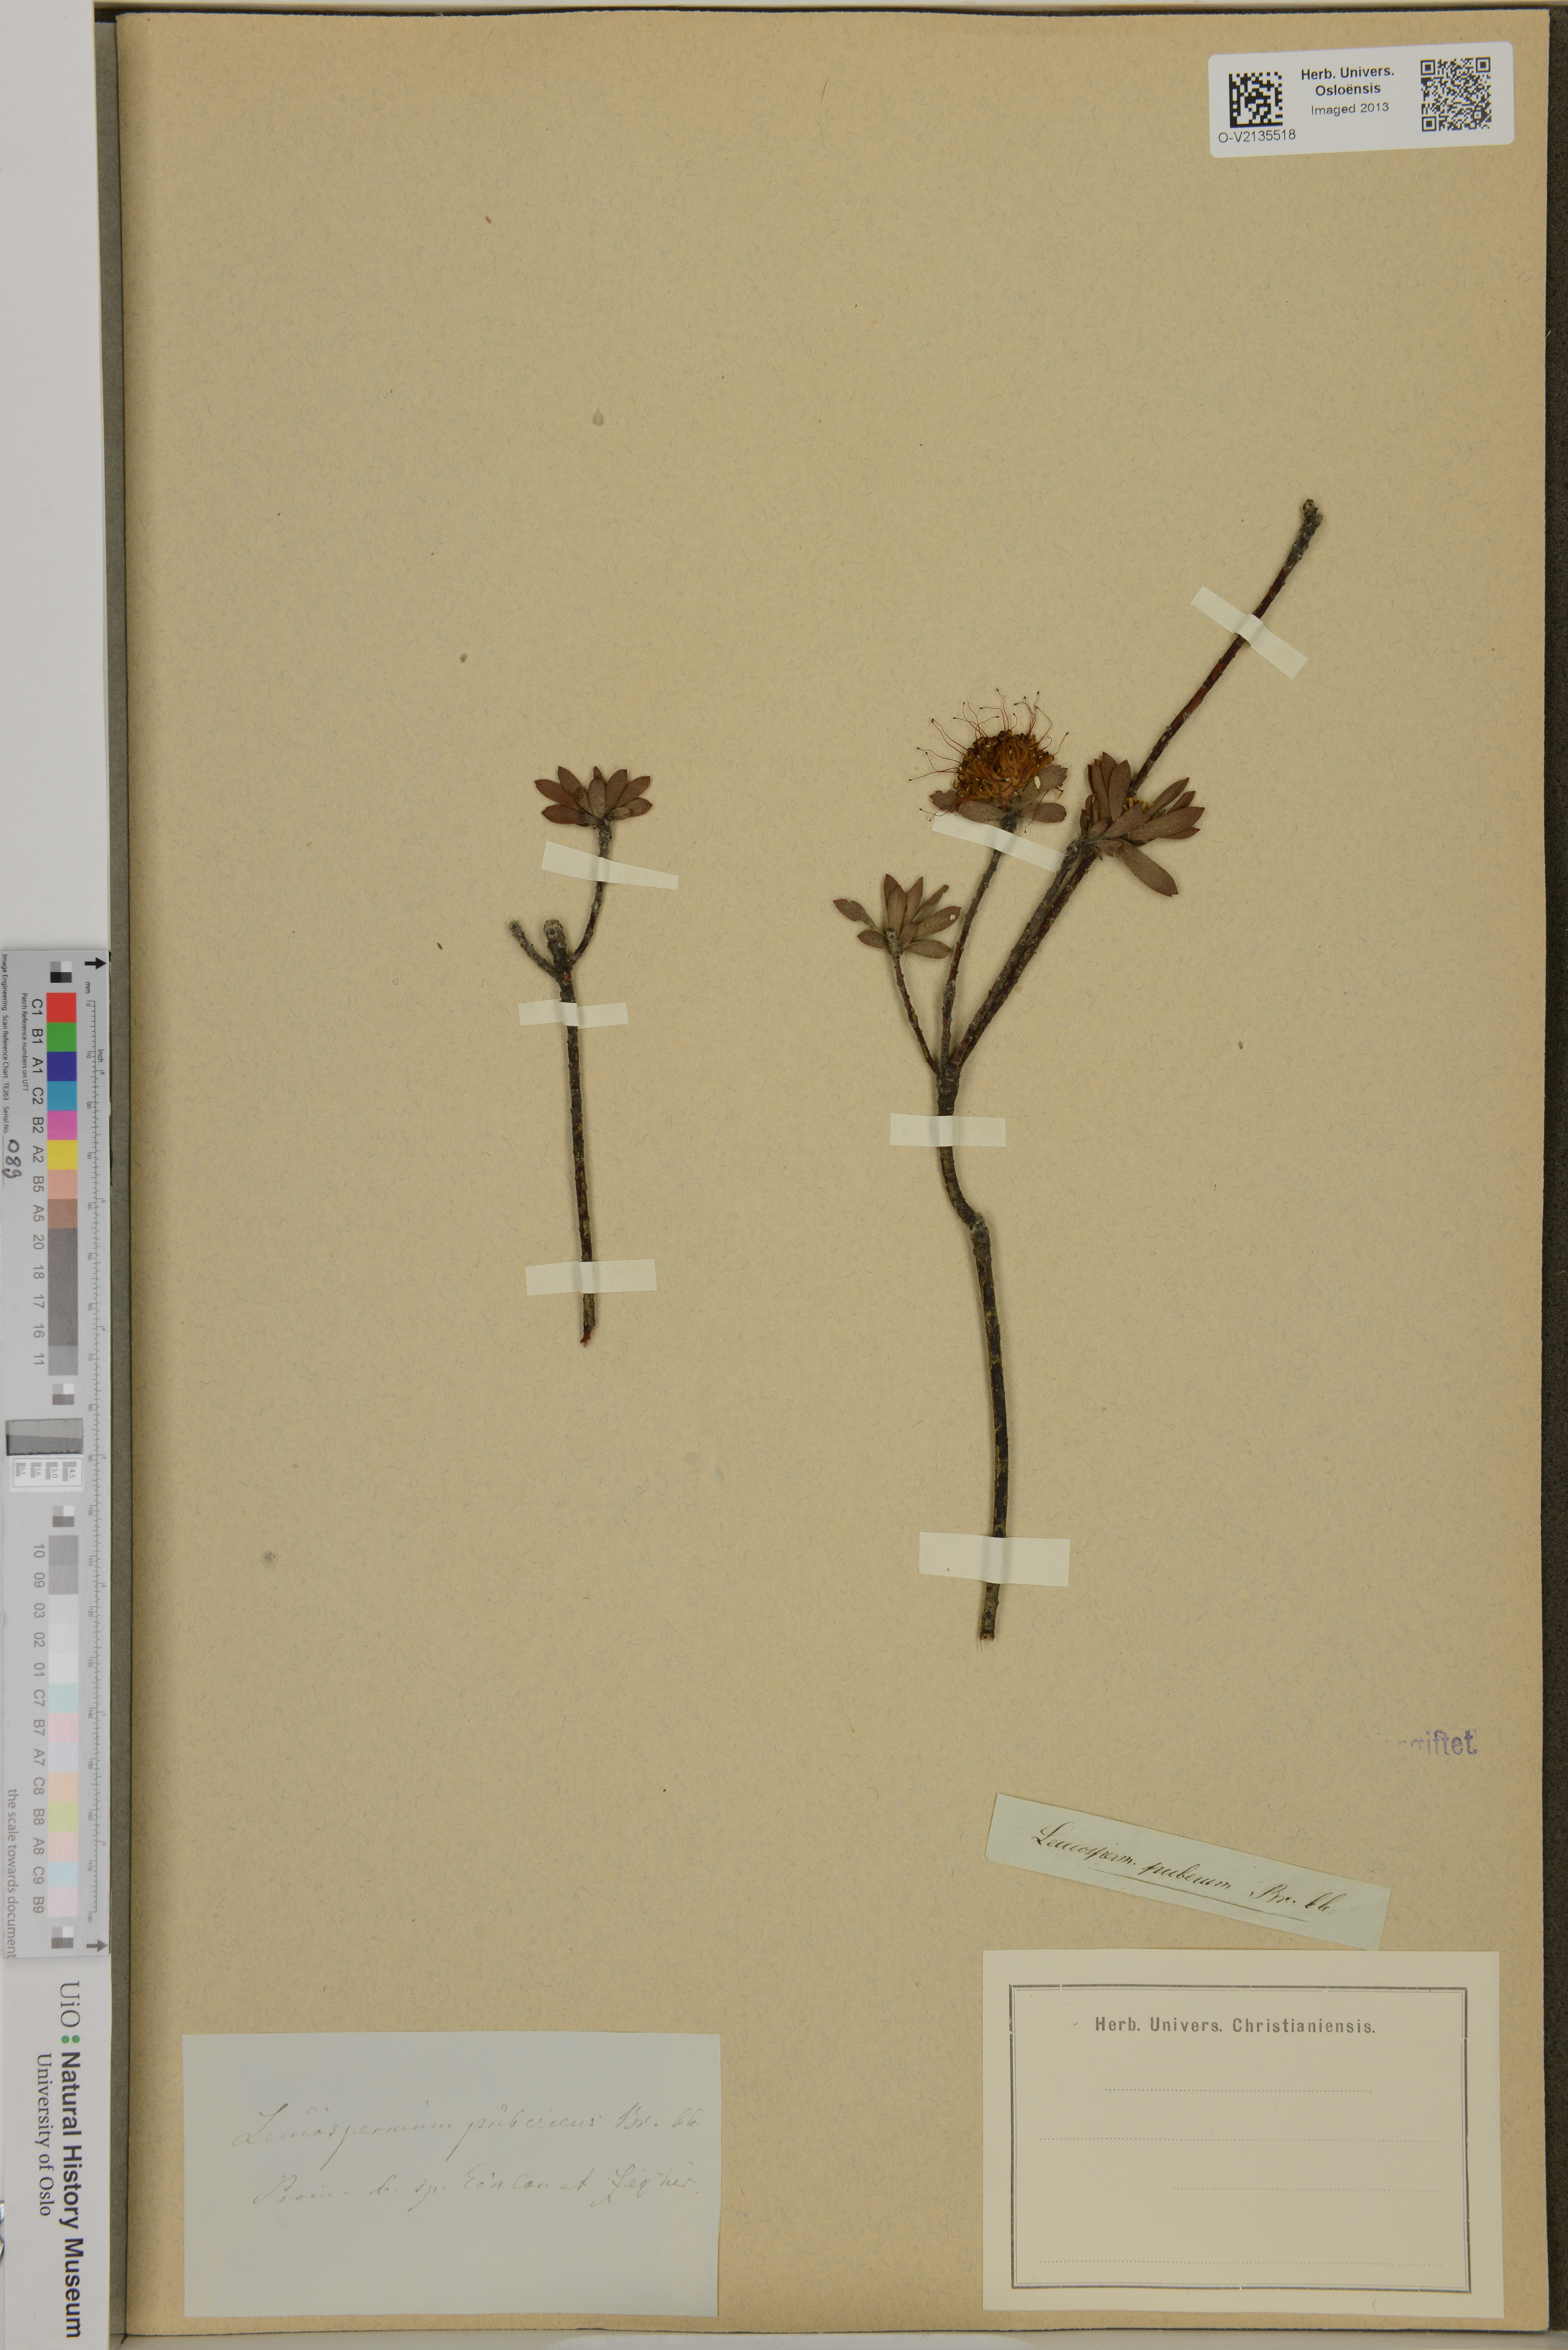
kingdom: Plantae
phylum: Tracheophyta
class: Magnoliopsida
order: Proteales
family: Proteaceae
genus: Diastella
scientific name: Diastella thymelaeoides
